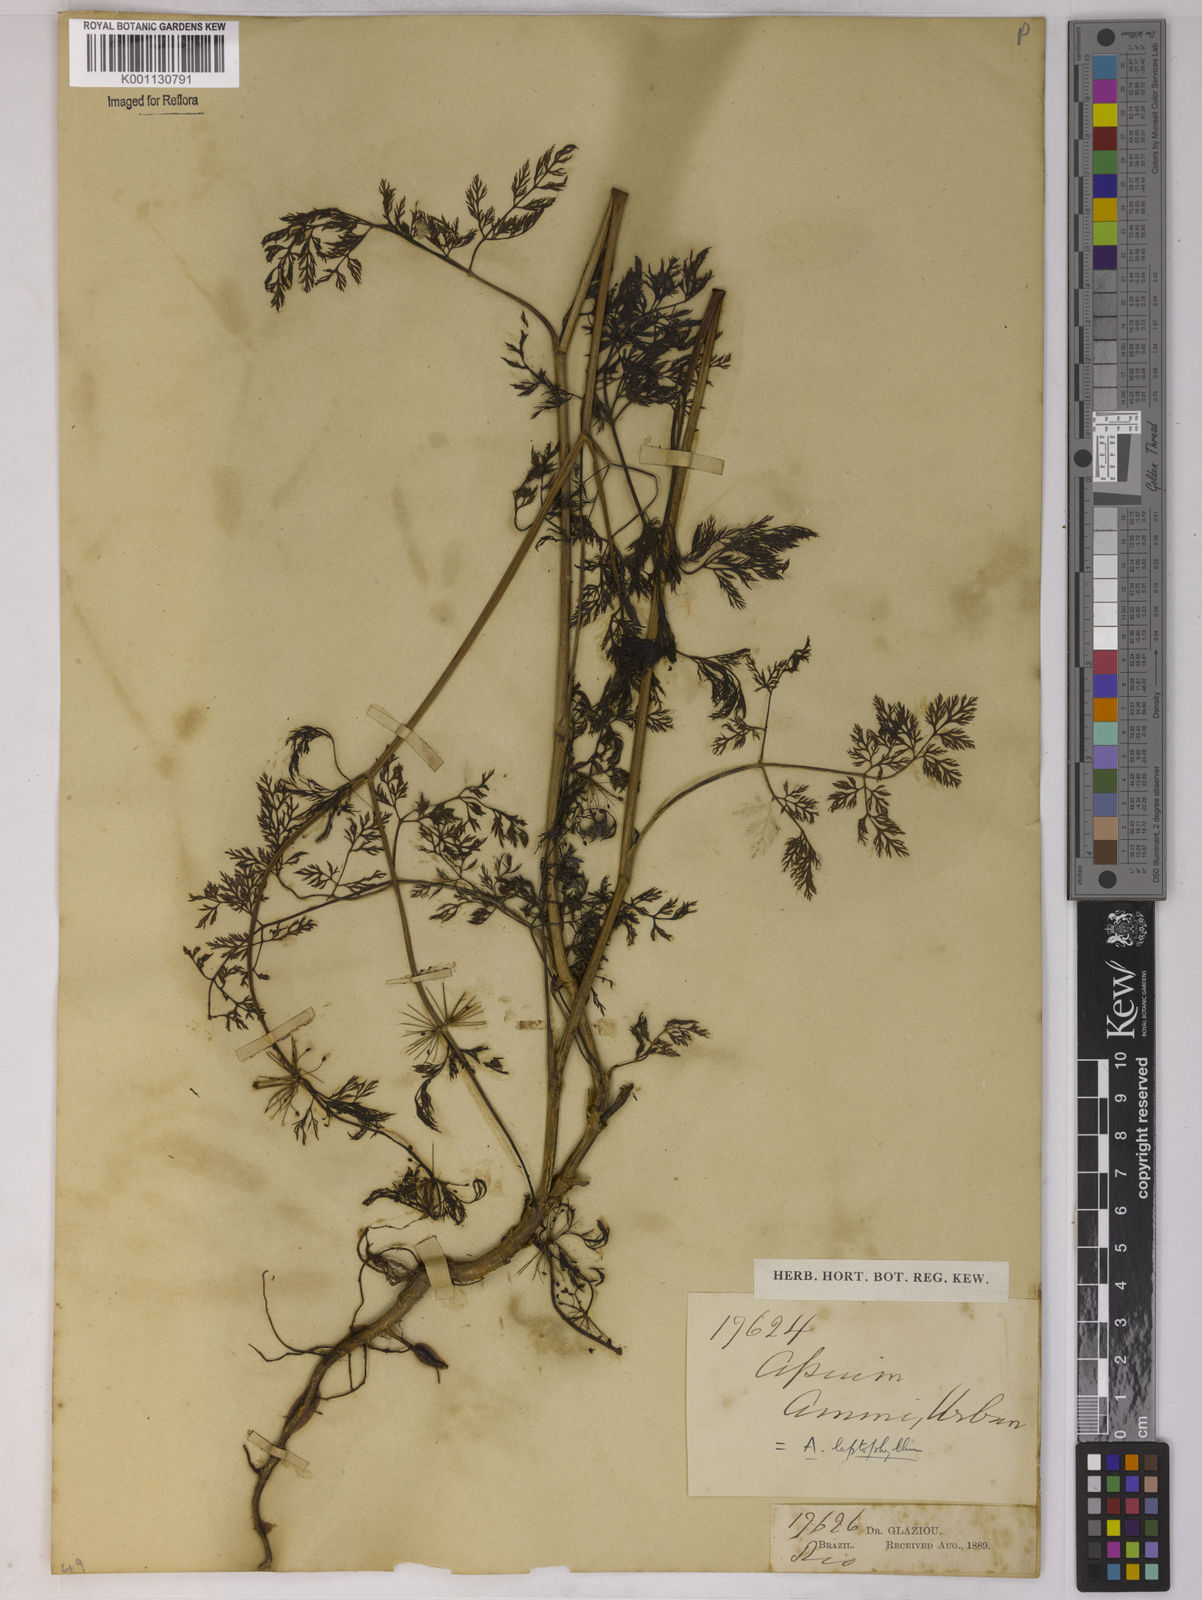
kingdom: Plantae
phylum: Tracheophyta
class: Magnoliopsida
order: Apiales
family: Apiaceae
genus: Apium
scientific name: Apium
